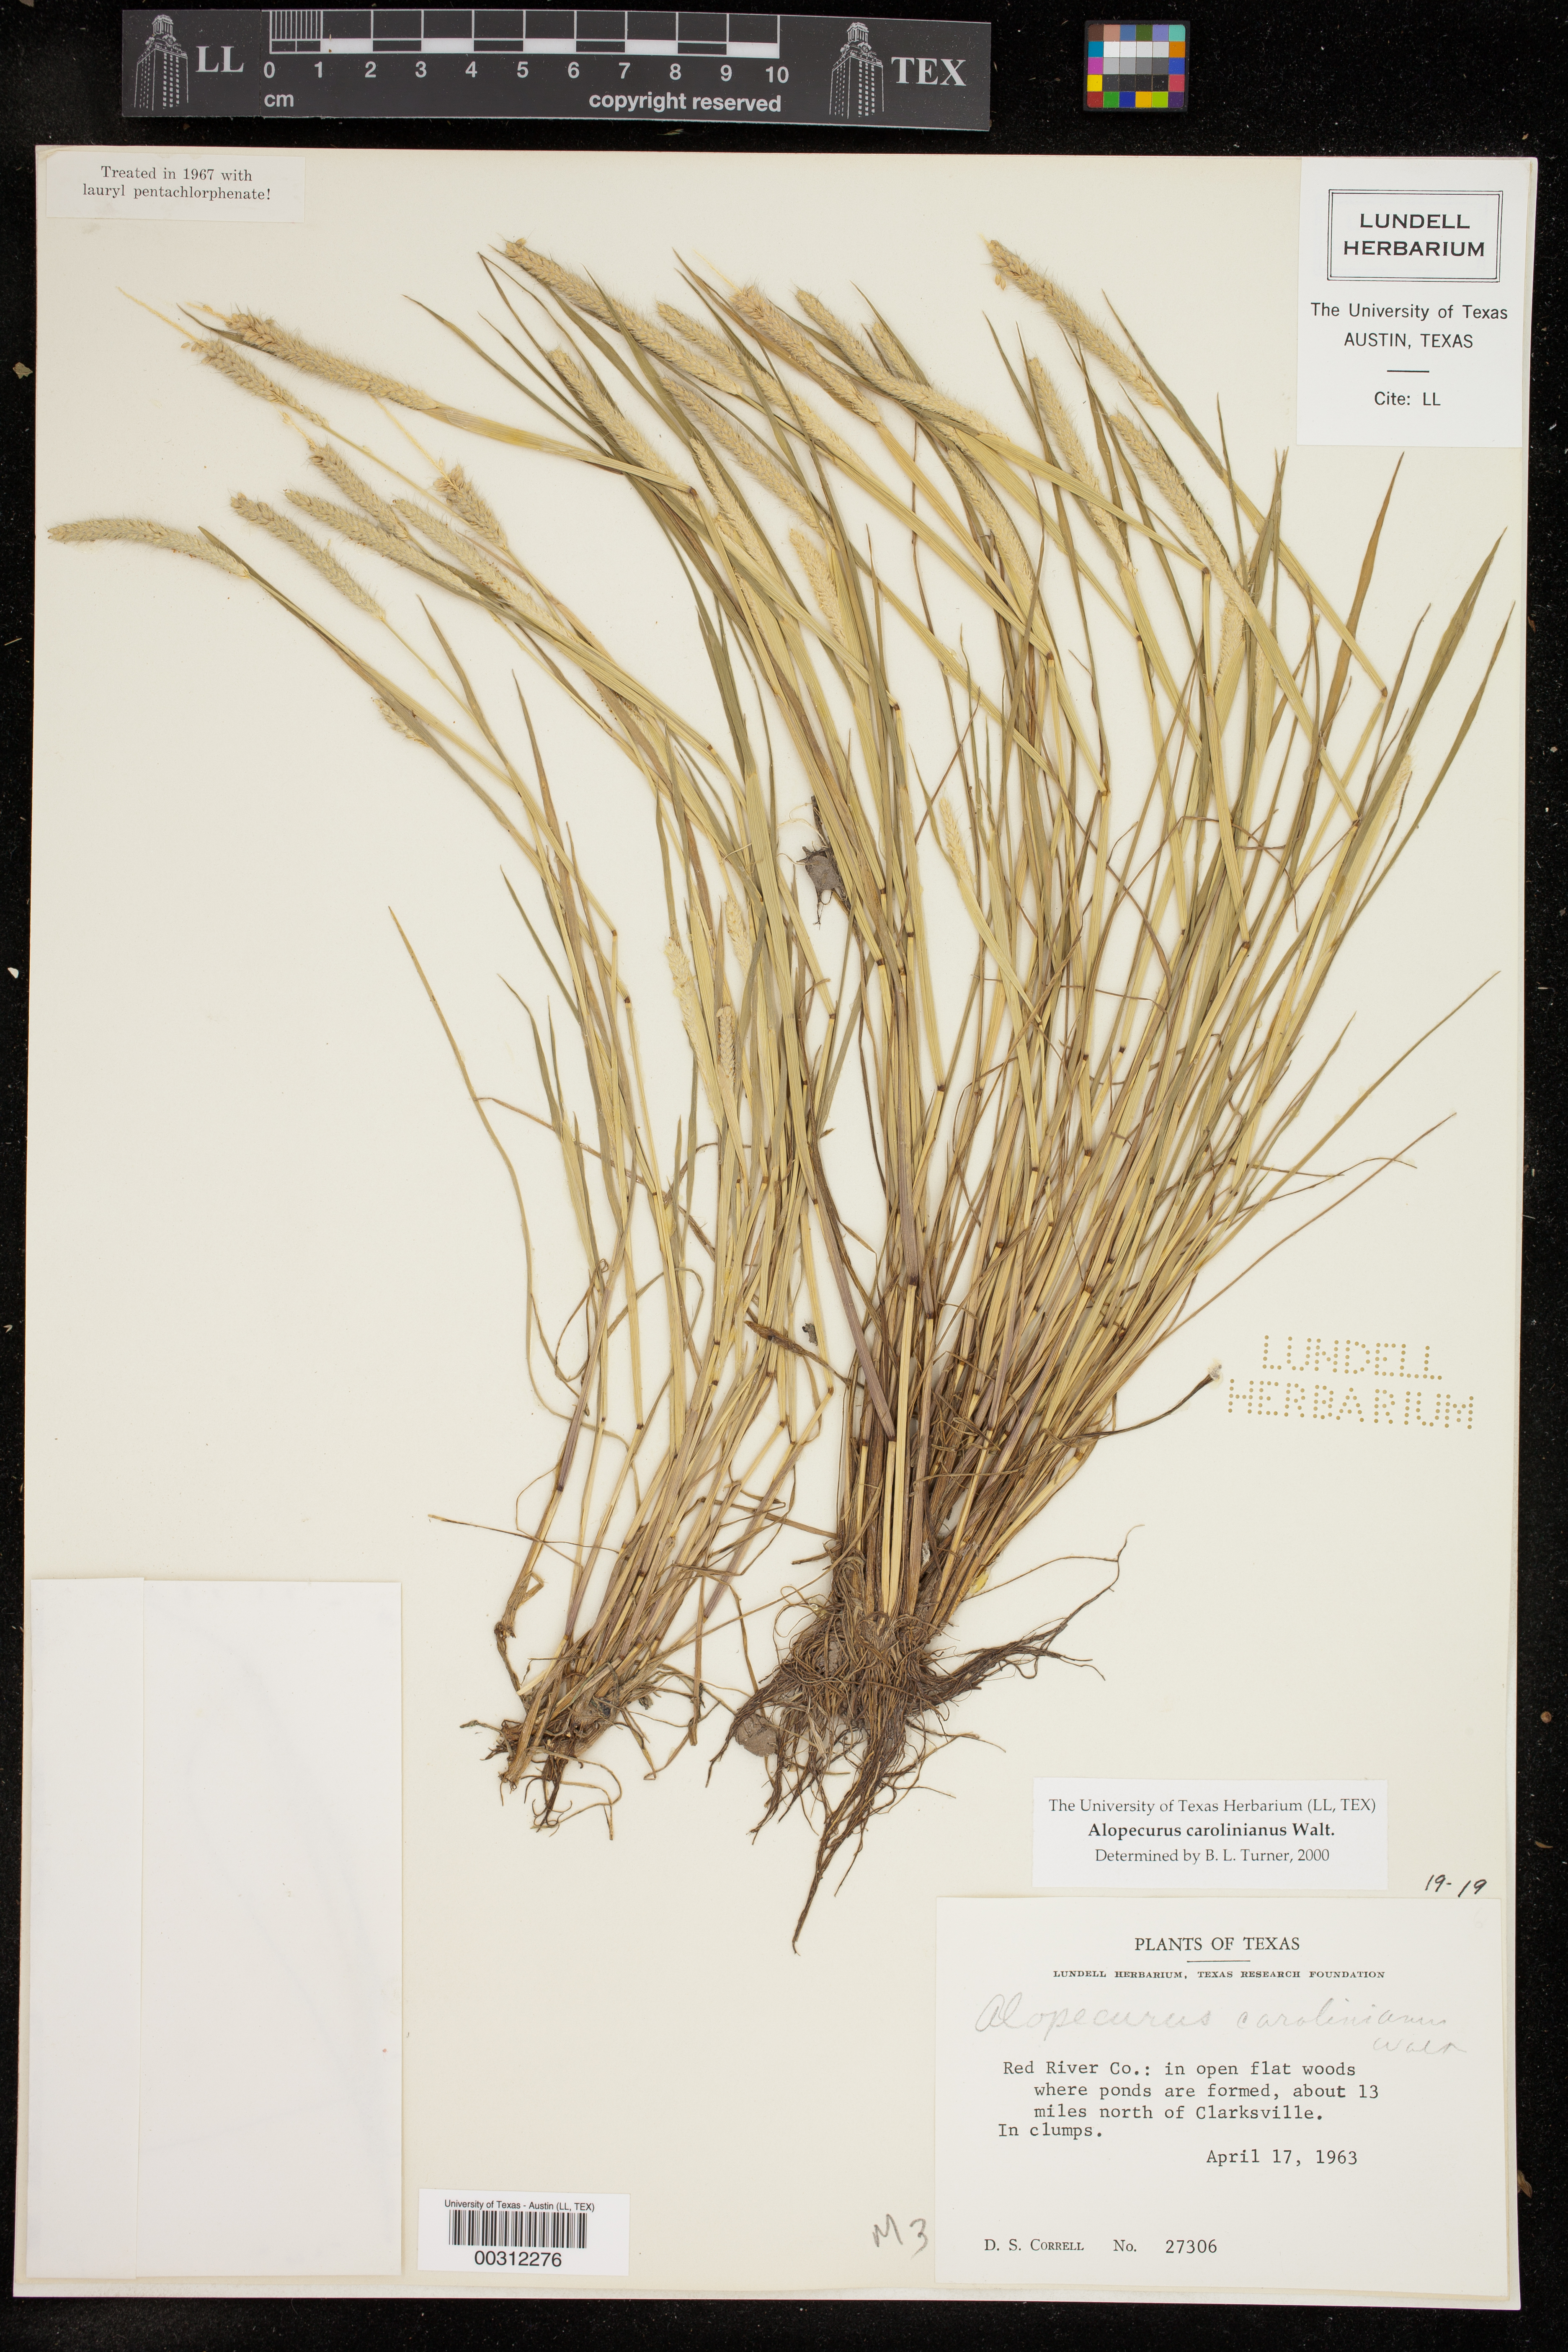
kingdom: Plantae
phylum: Tracheophyta
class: Liliopsida
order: Poales
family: Poaceae
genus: Alopecurus
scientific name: Alopecurus carolinianus
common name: Tufted foxtail
